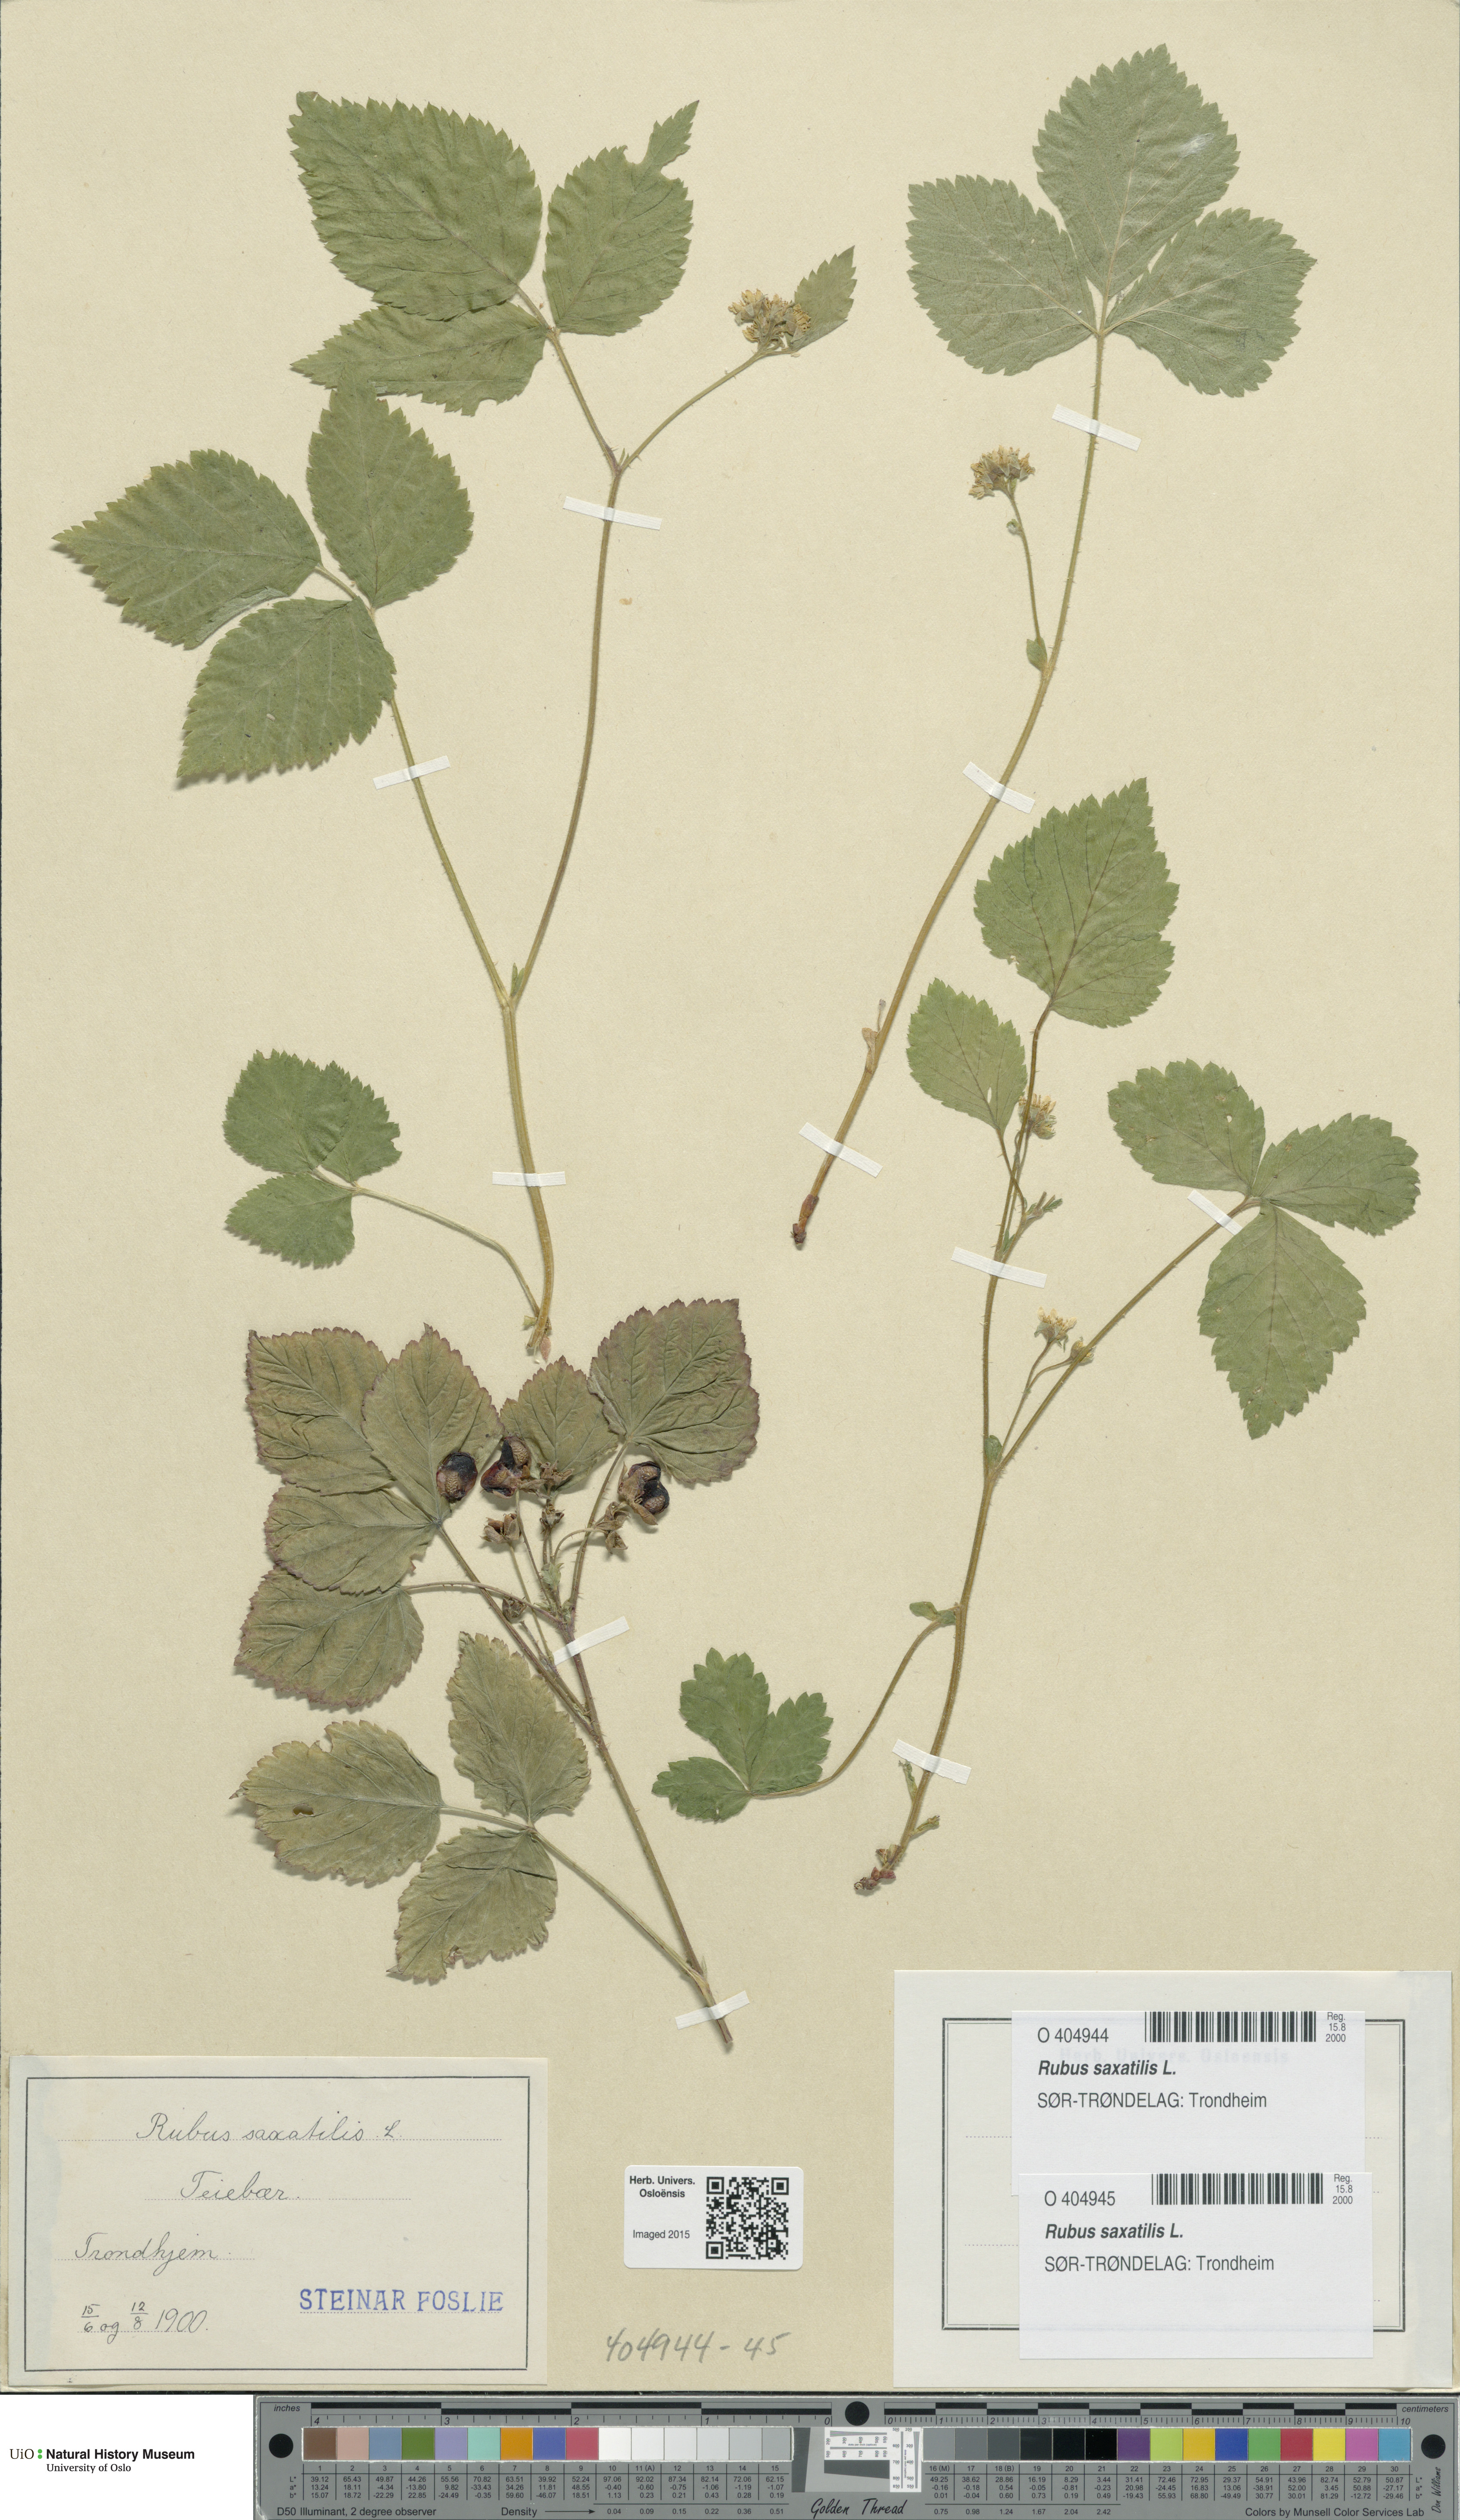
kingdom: Plantae
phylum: Tracheophyta
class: Magnoliopsida
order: Rosales
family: Rosaceae
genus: Rubus
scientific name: Rubus saxatilis
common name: Stone bramble
